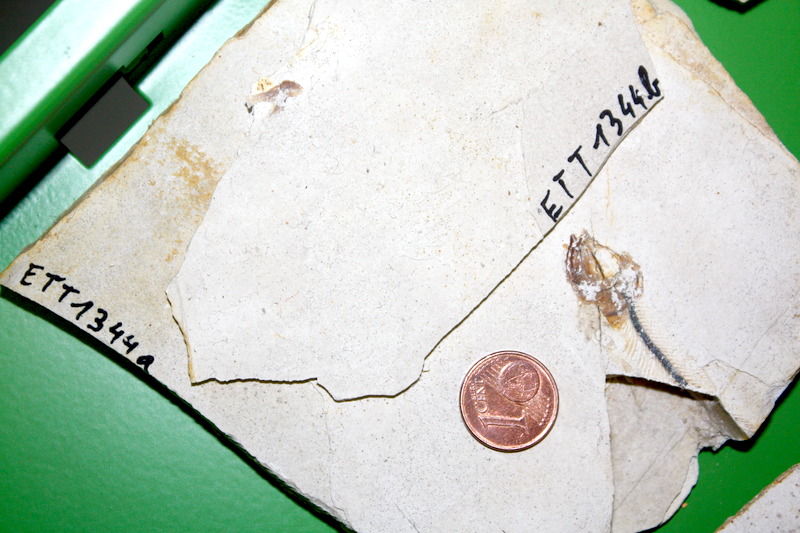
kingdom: Animalia
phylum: Chordata
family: Ascalaboidae
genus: Ebertichthys
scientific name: Ebertichthys ettlingensis
